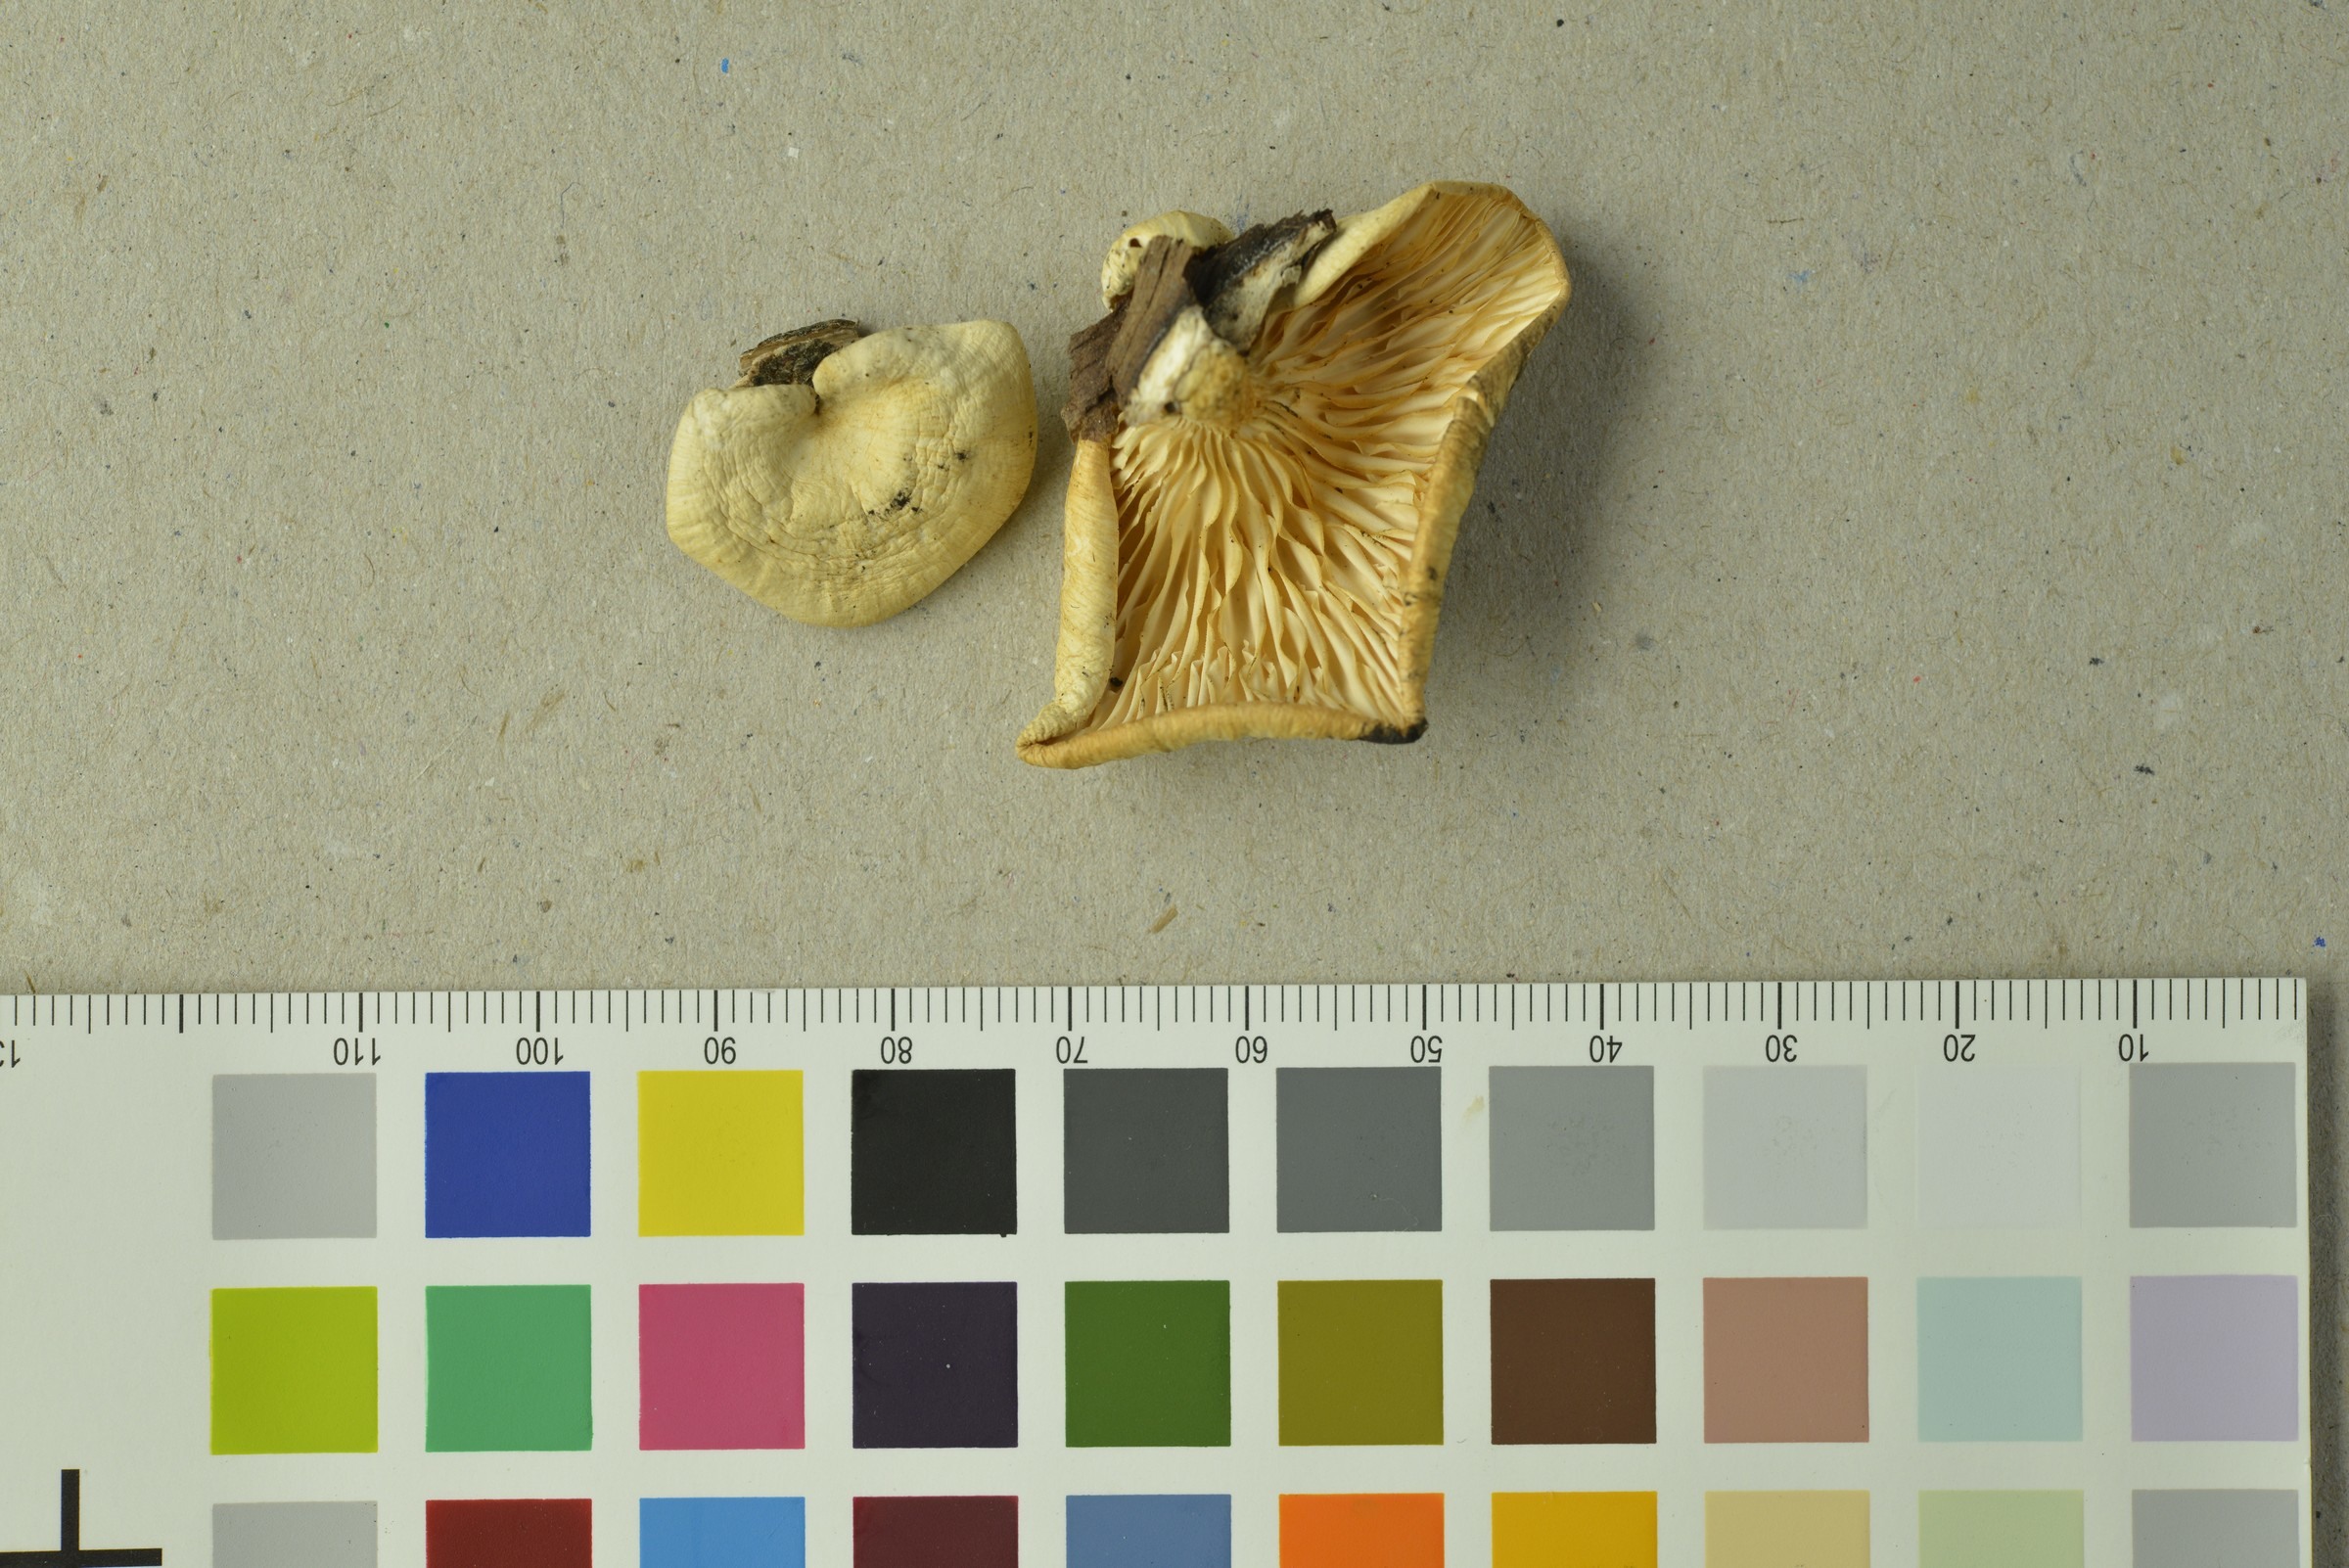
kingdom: Fungi
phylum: Basidiomycota
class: Agaricomycetes
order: Polyporales
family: Polyporaceae
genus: Neofavolus
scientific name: Neofavolus suavissimus
